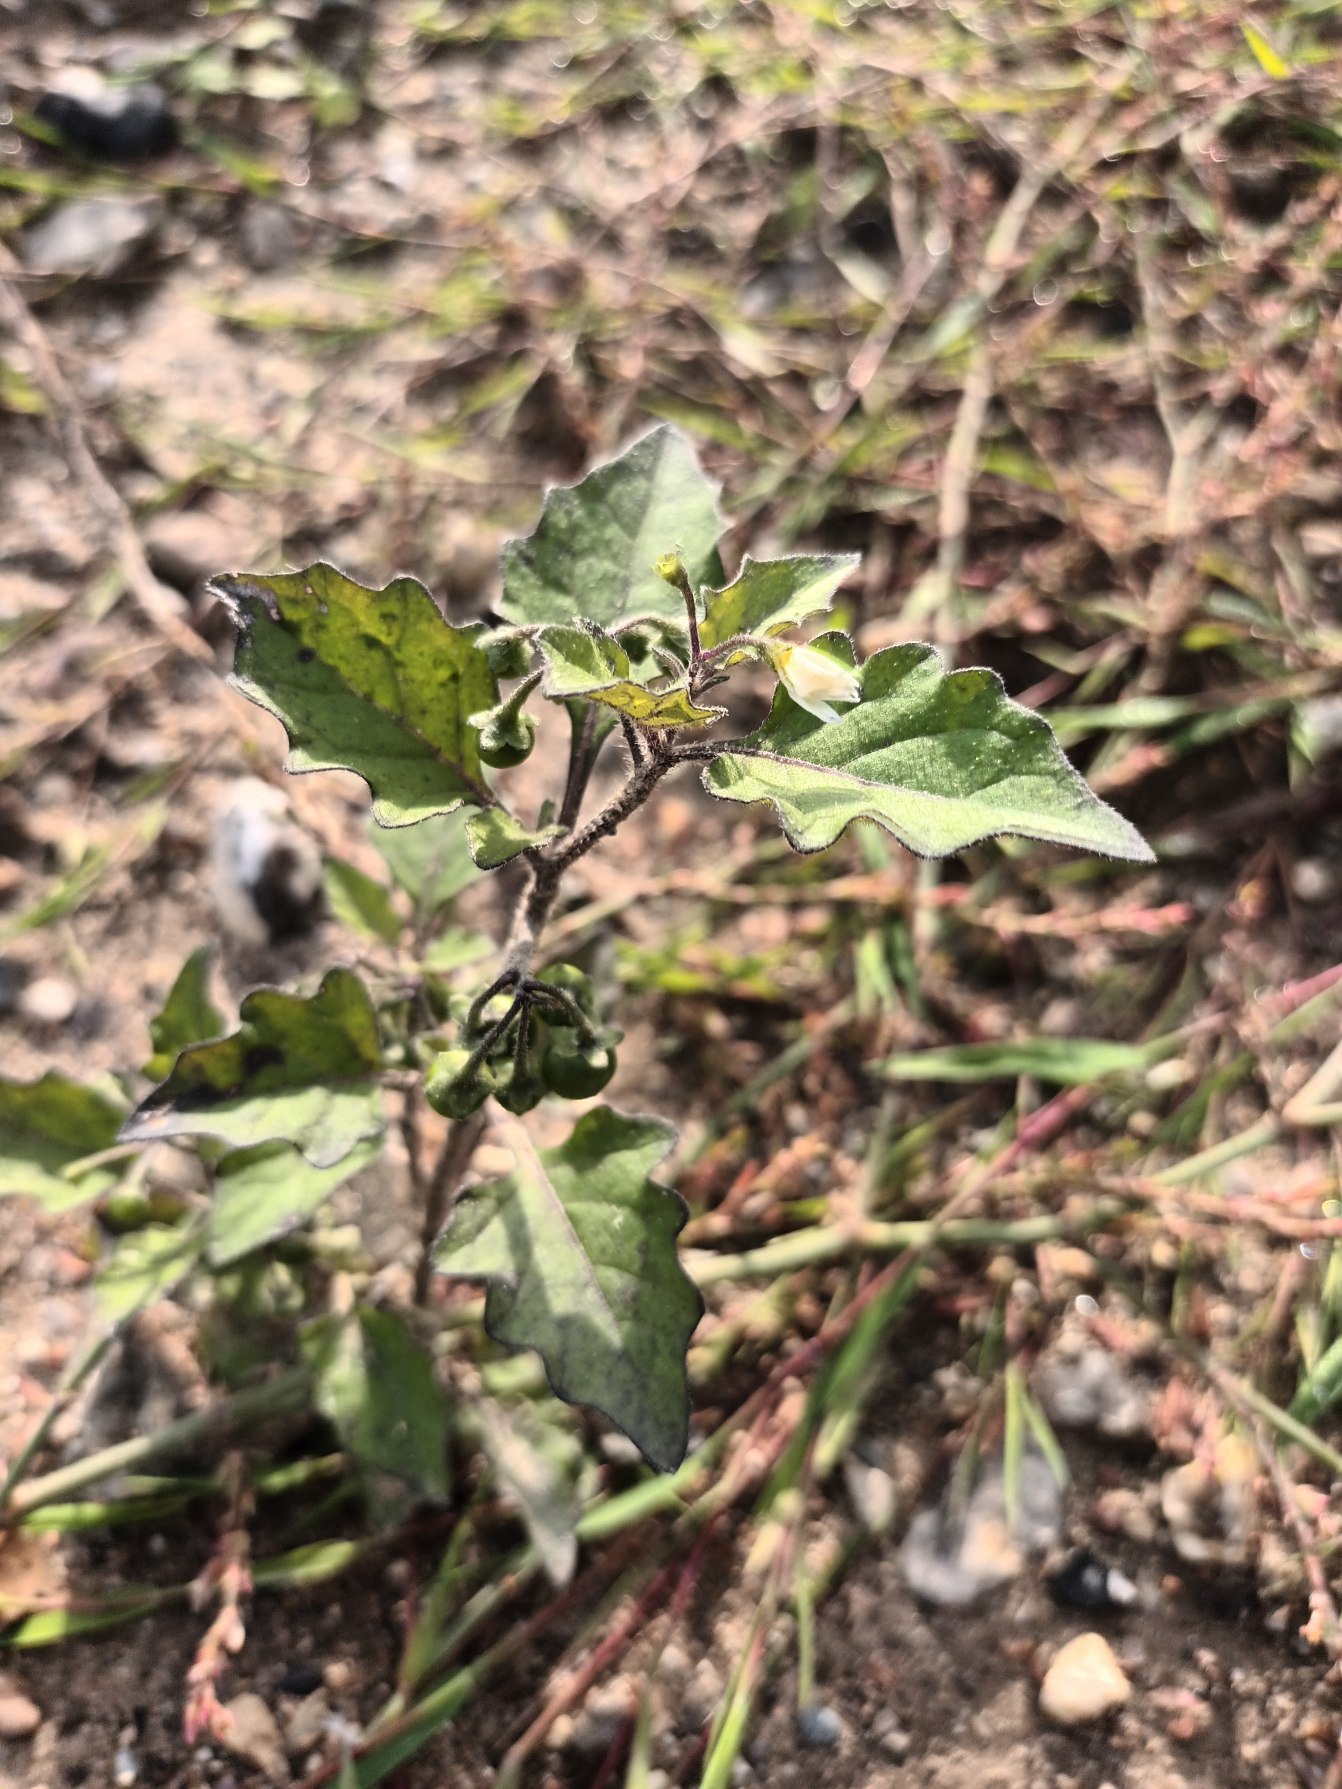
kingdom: Plantae
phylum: Tracheophyta
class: Magnoliopsida
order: Solanales
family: Solanaceae
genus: Solanum
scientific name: Solanum nigrum
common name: Sort natskygge (underart)
